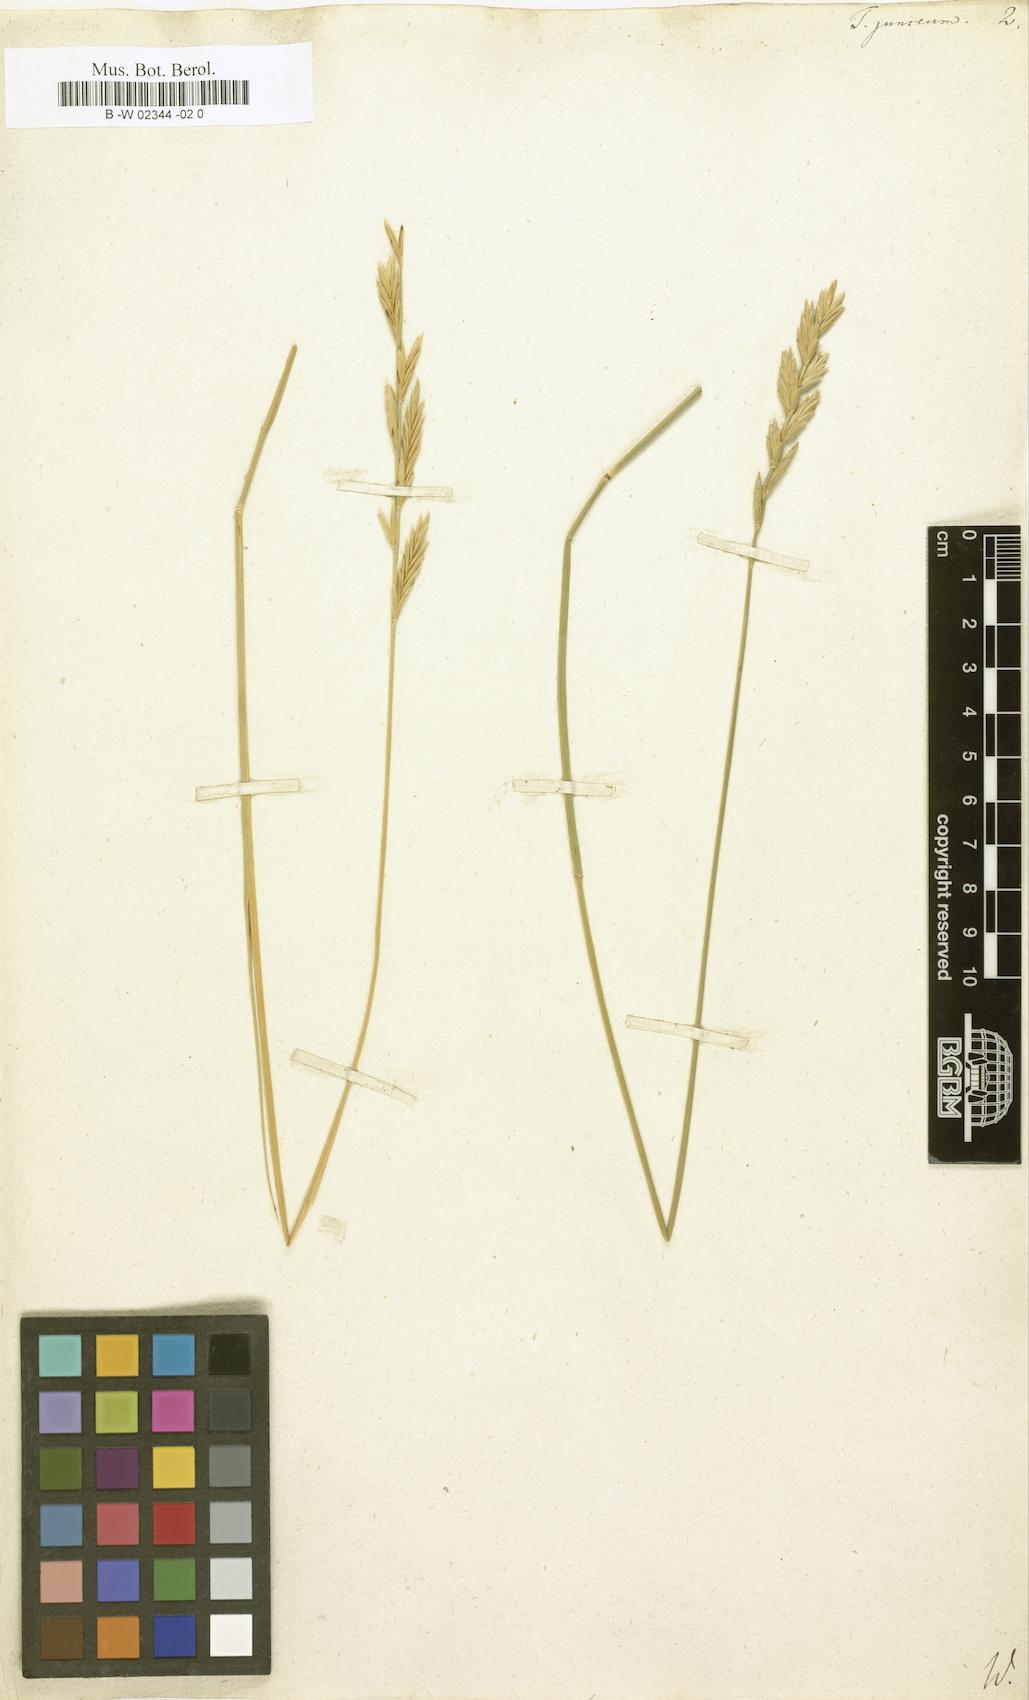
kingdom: Plantae
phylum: Tracheophyta
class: Liliopsida
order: Poales
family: Poaceae
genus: Thinopyrum
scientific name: Thinopyrum
